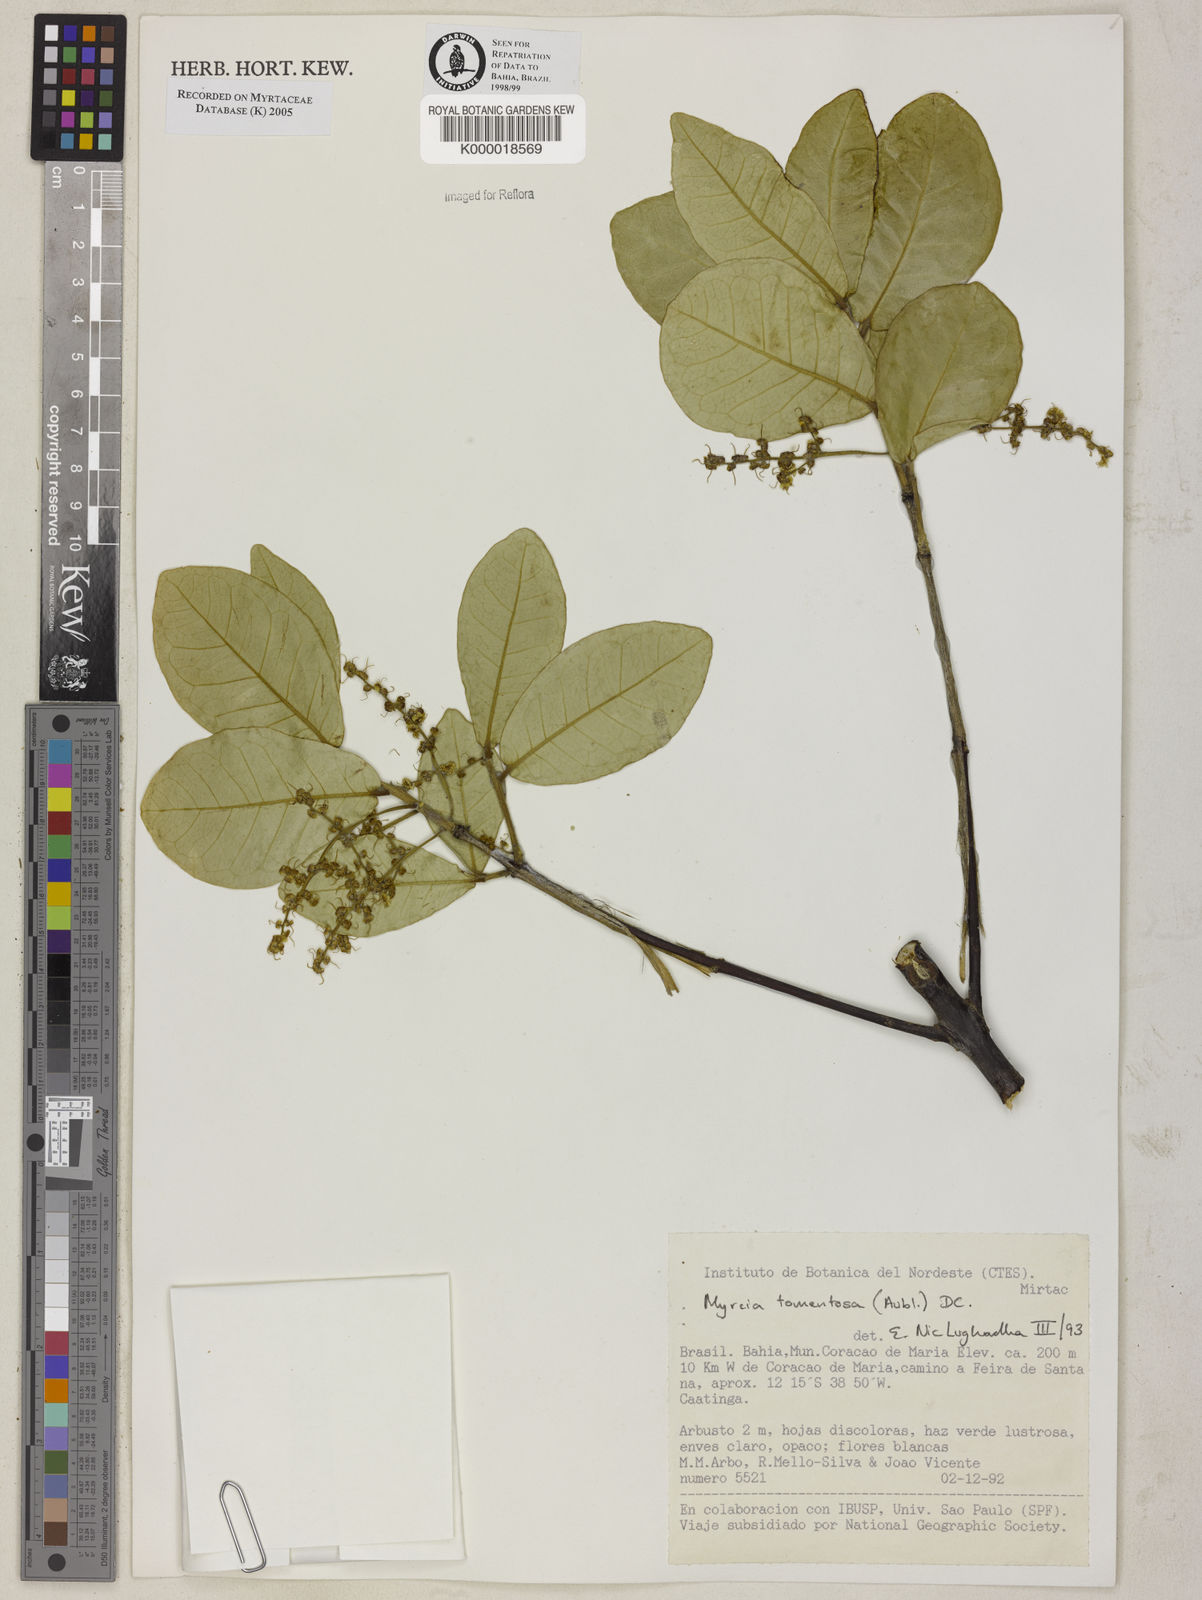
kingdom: Plantae
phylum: Tracheophyta
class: Magnoliopsida
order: Myrtales
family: Myrtaceae
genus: Myrcia
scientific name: Myrcia tomentosa
